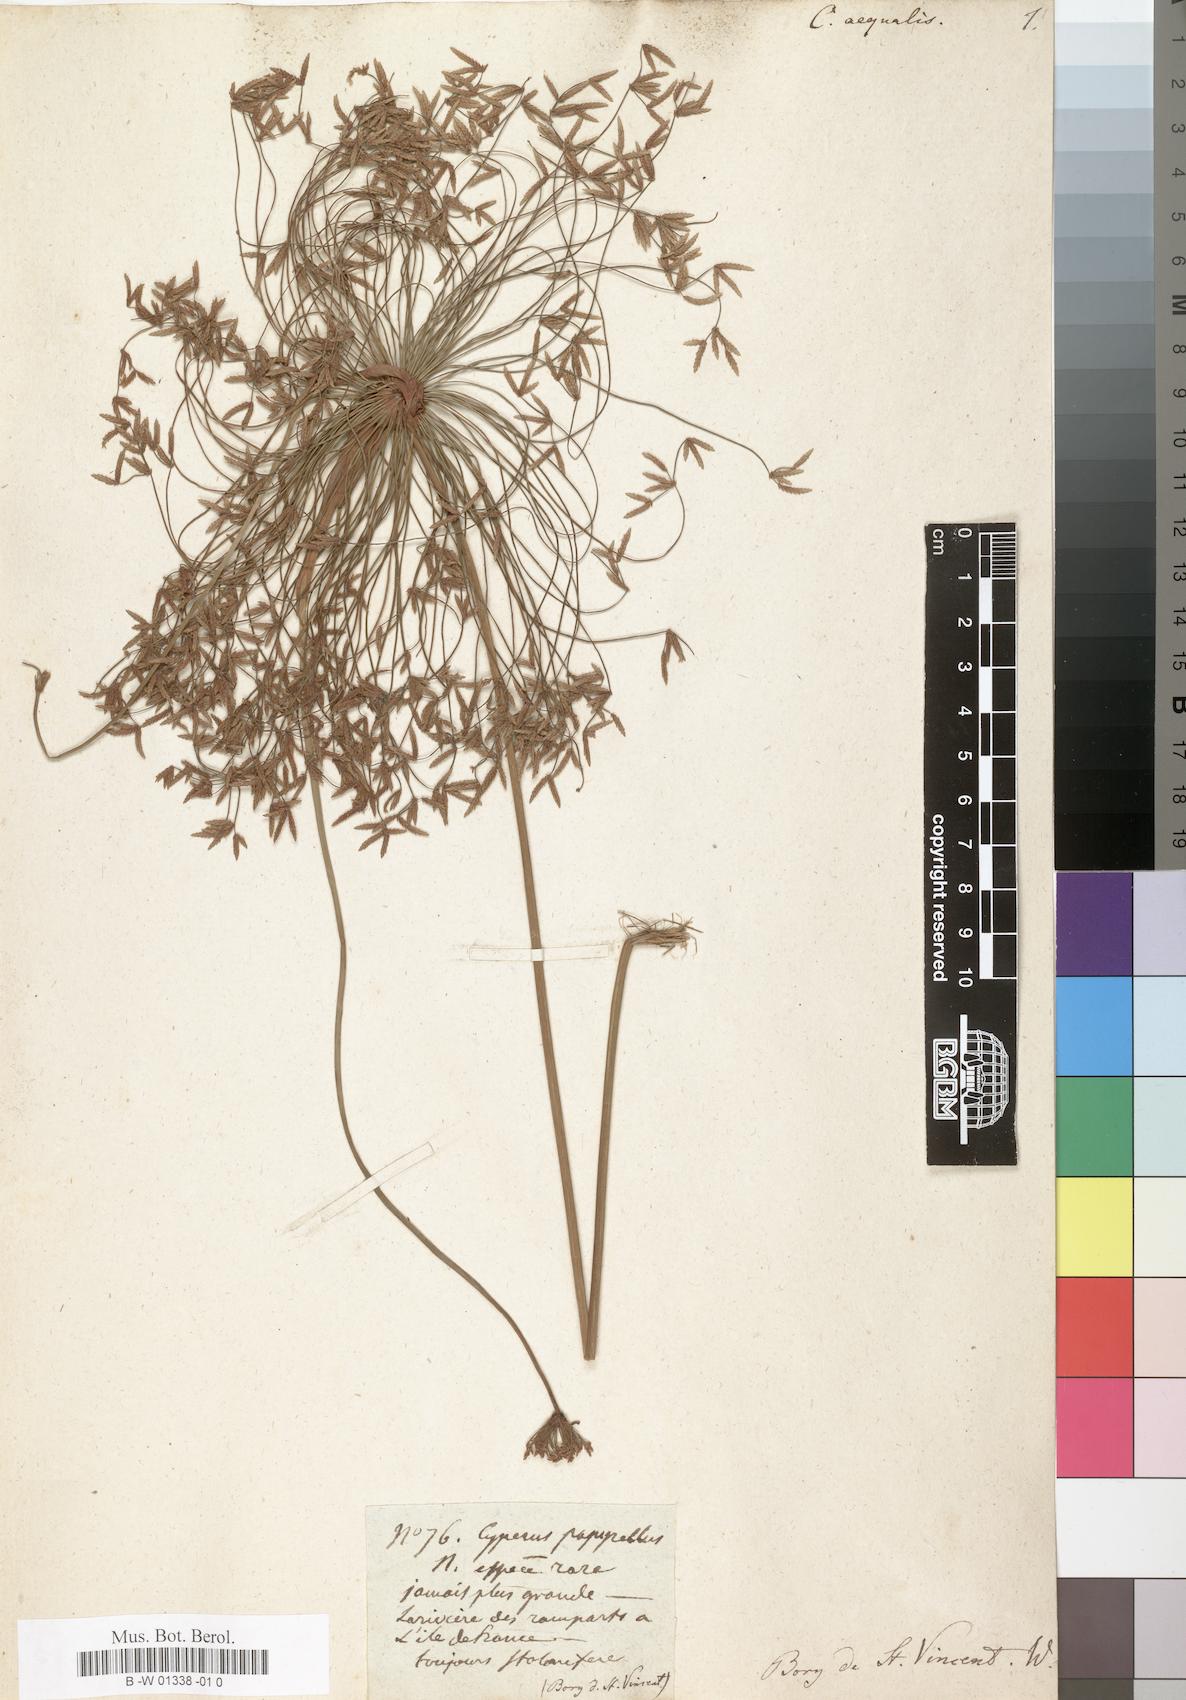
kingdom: Plantae
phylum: Tracheophyta
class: Liliopsida
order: Poales
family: Cyperaceae
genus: Cyperus
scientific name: Cyperus prolifer
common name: Miniature flatsedge
